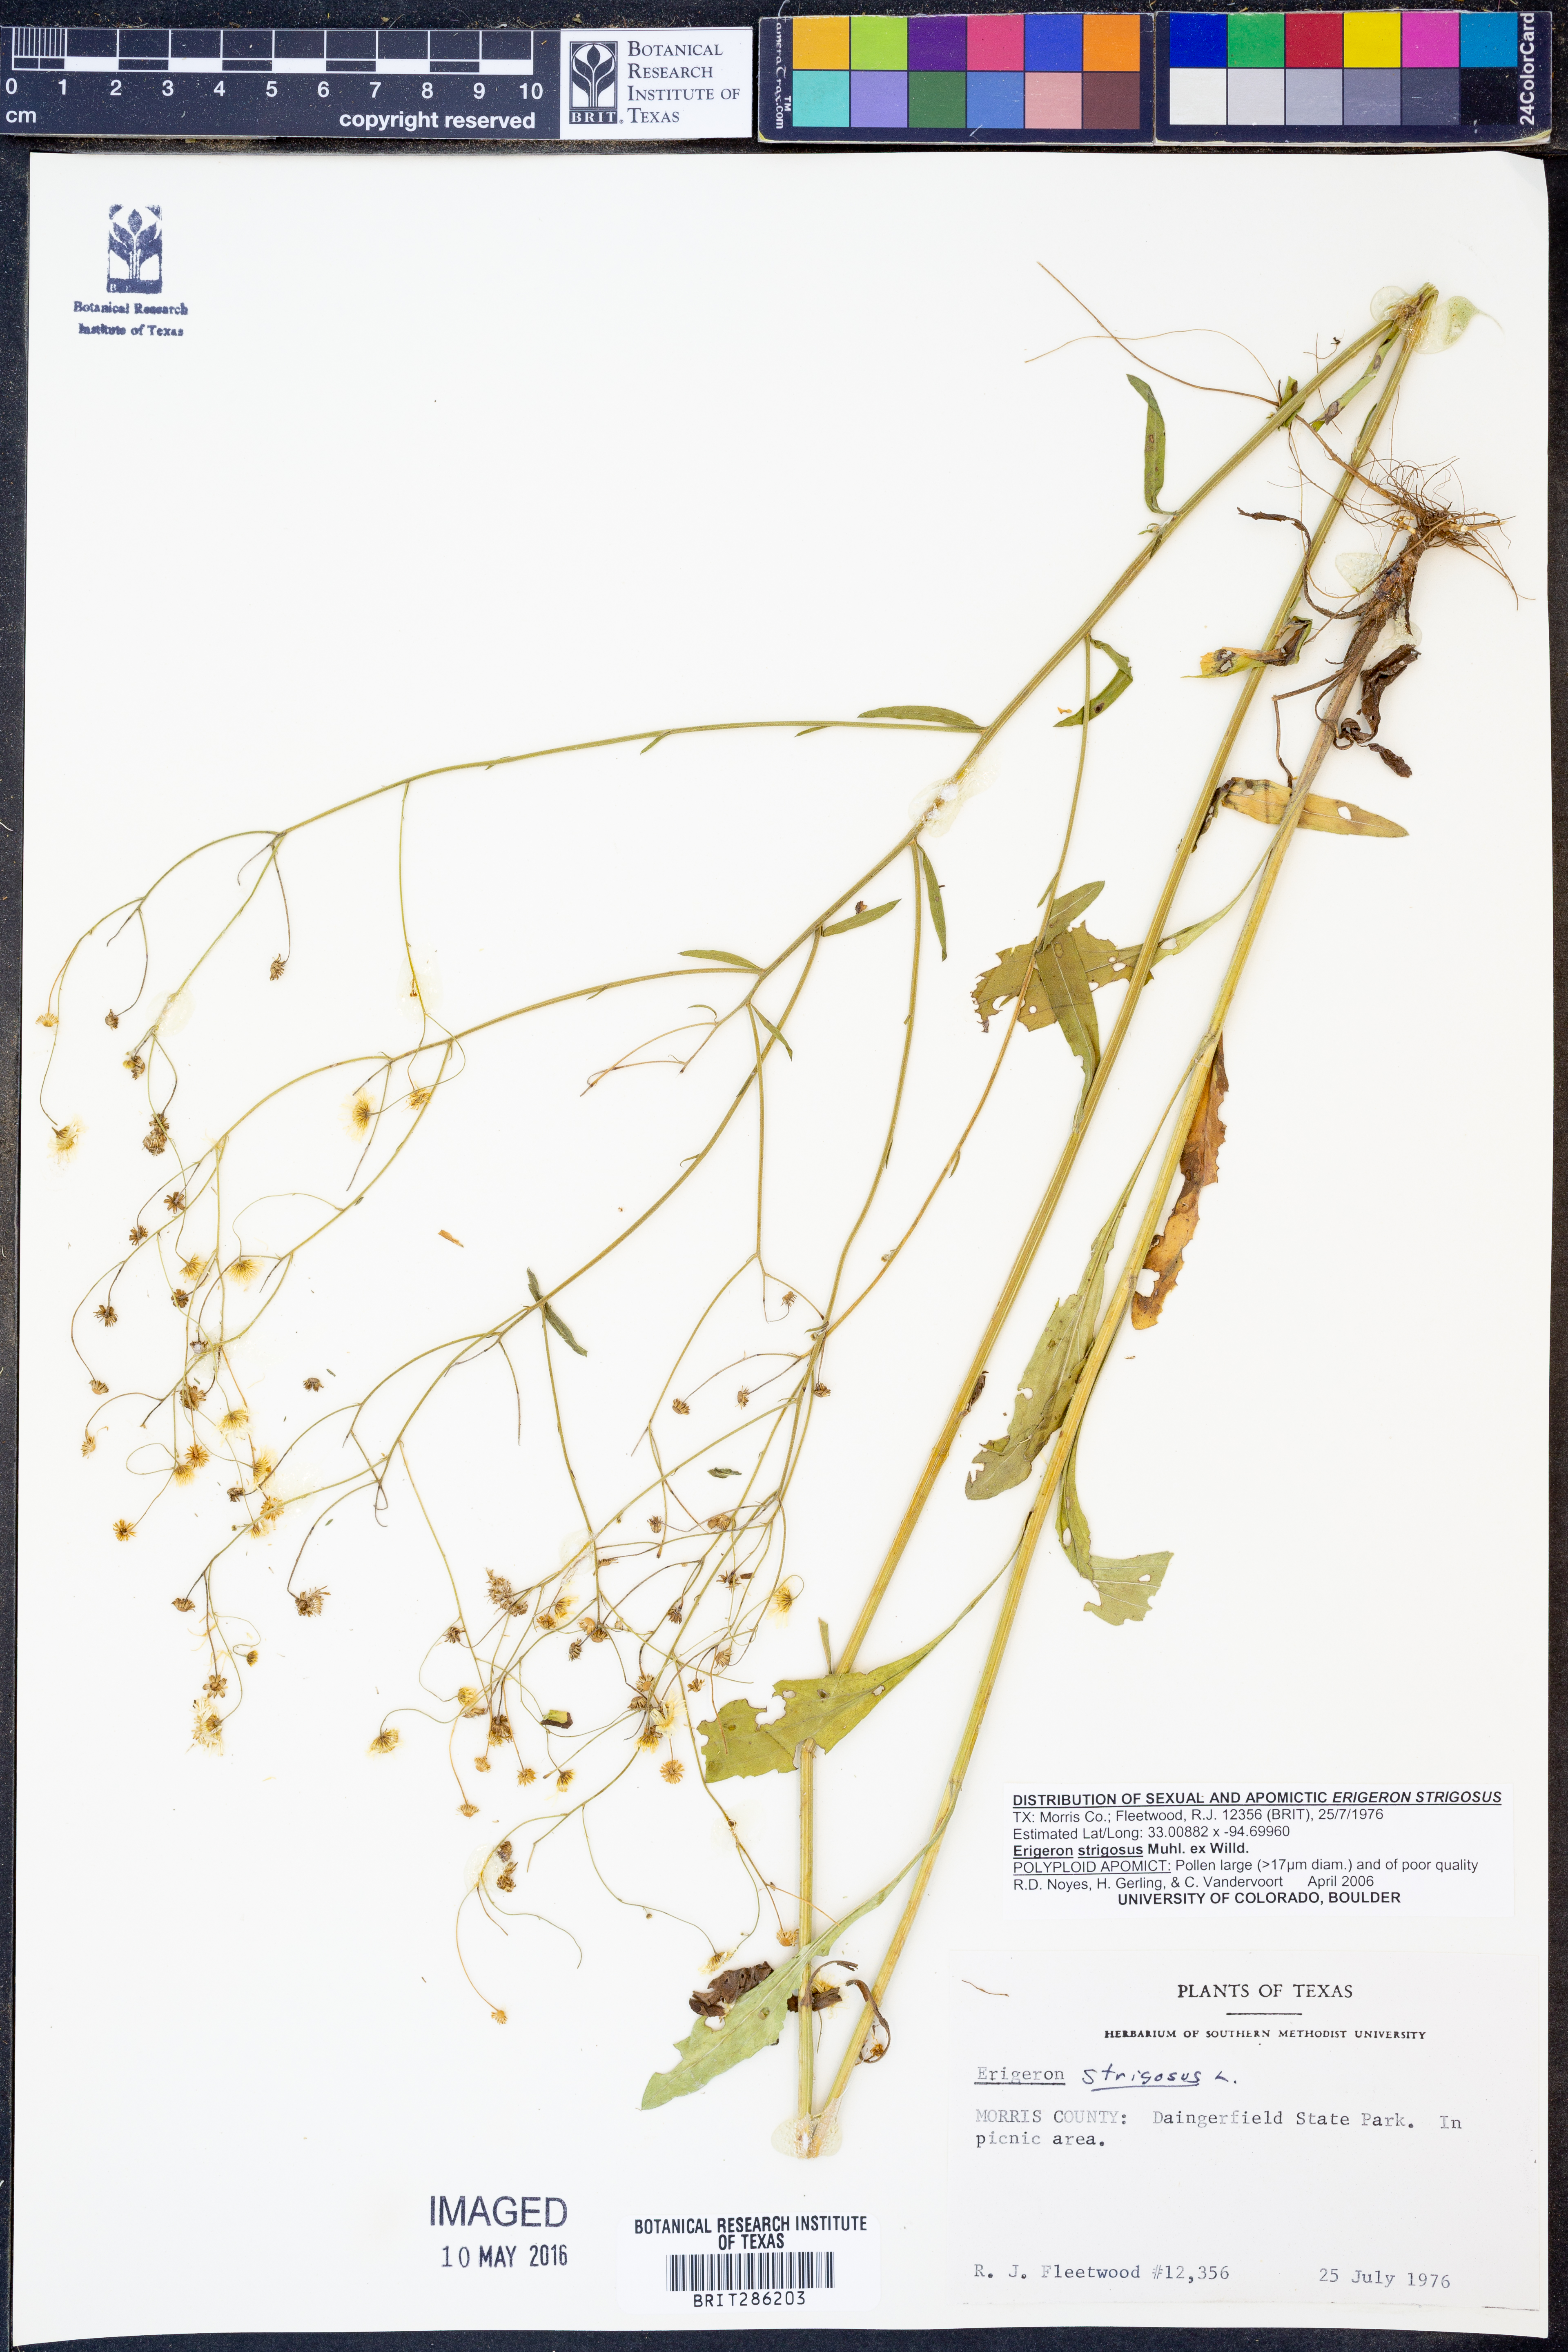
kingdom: Plantae
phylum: Tracheophyta
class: Magnoliopsida
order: Asterales
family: Asteraceae
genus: Erigeron
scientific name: Erigeron strigosus
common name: Common eastern fleabane
